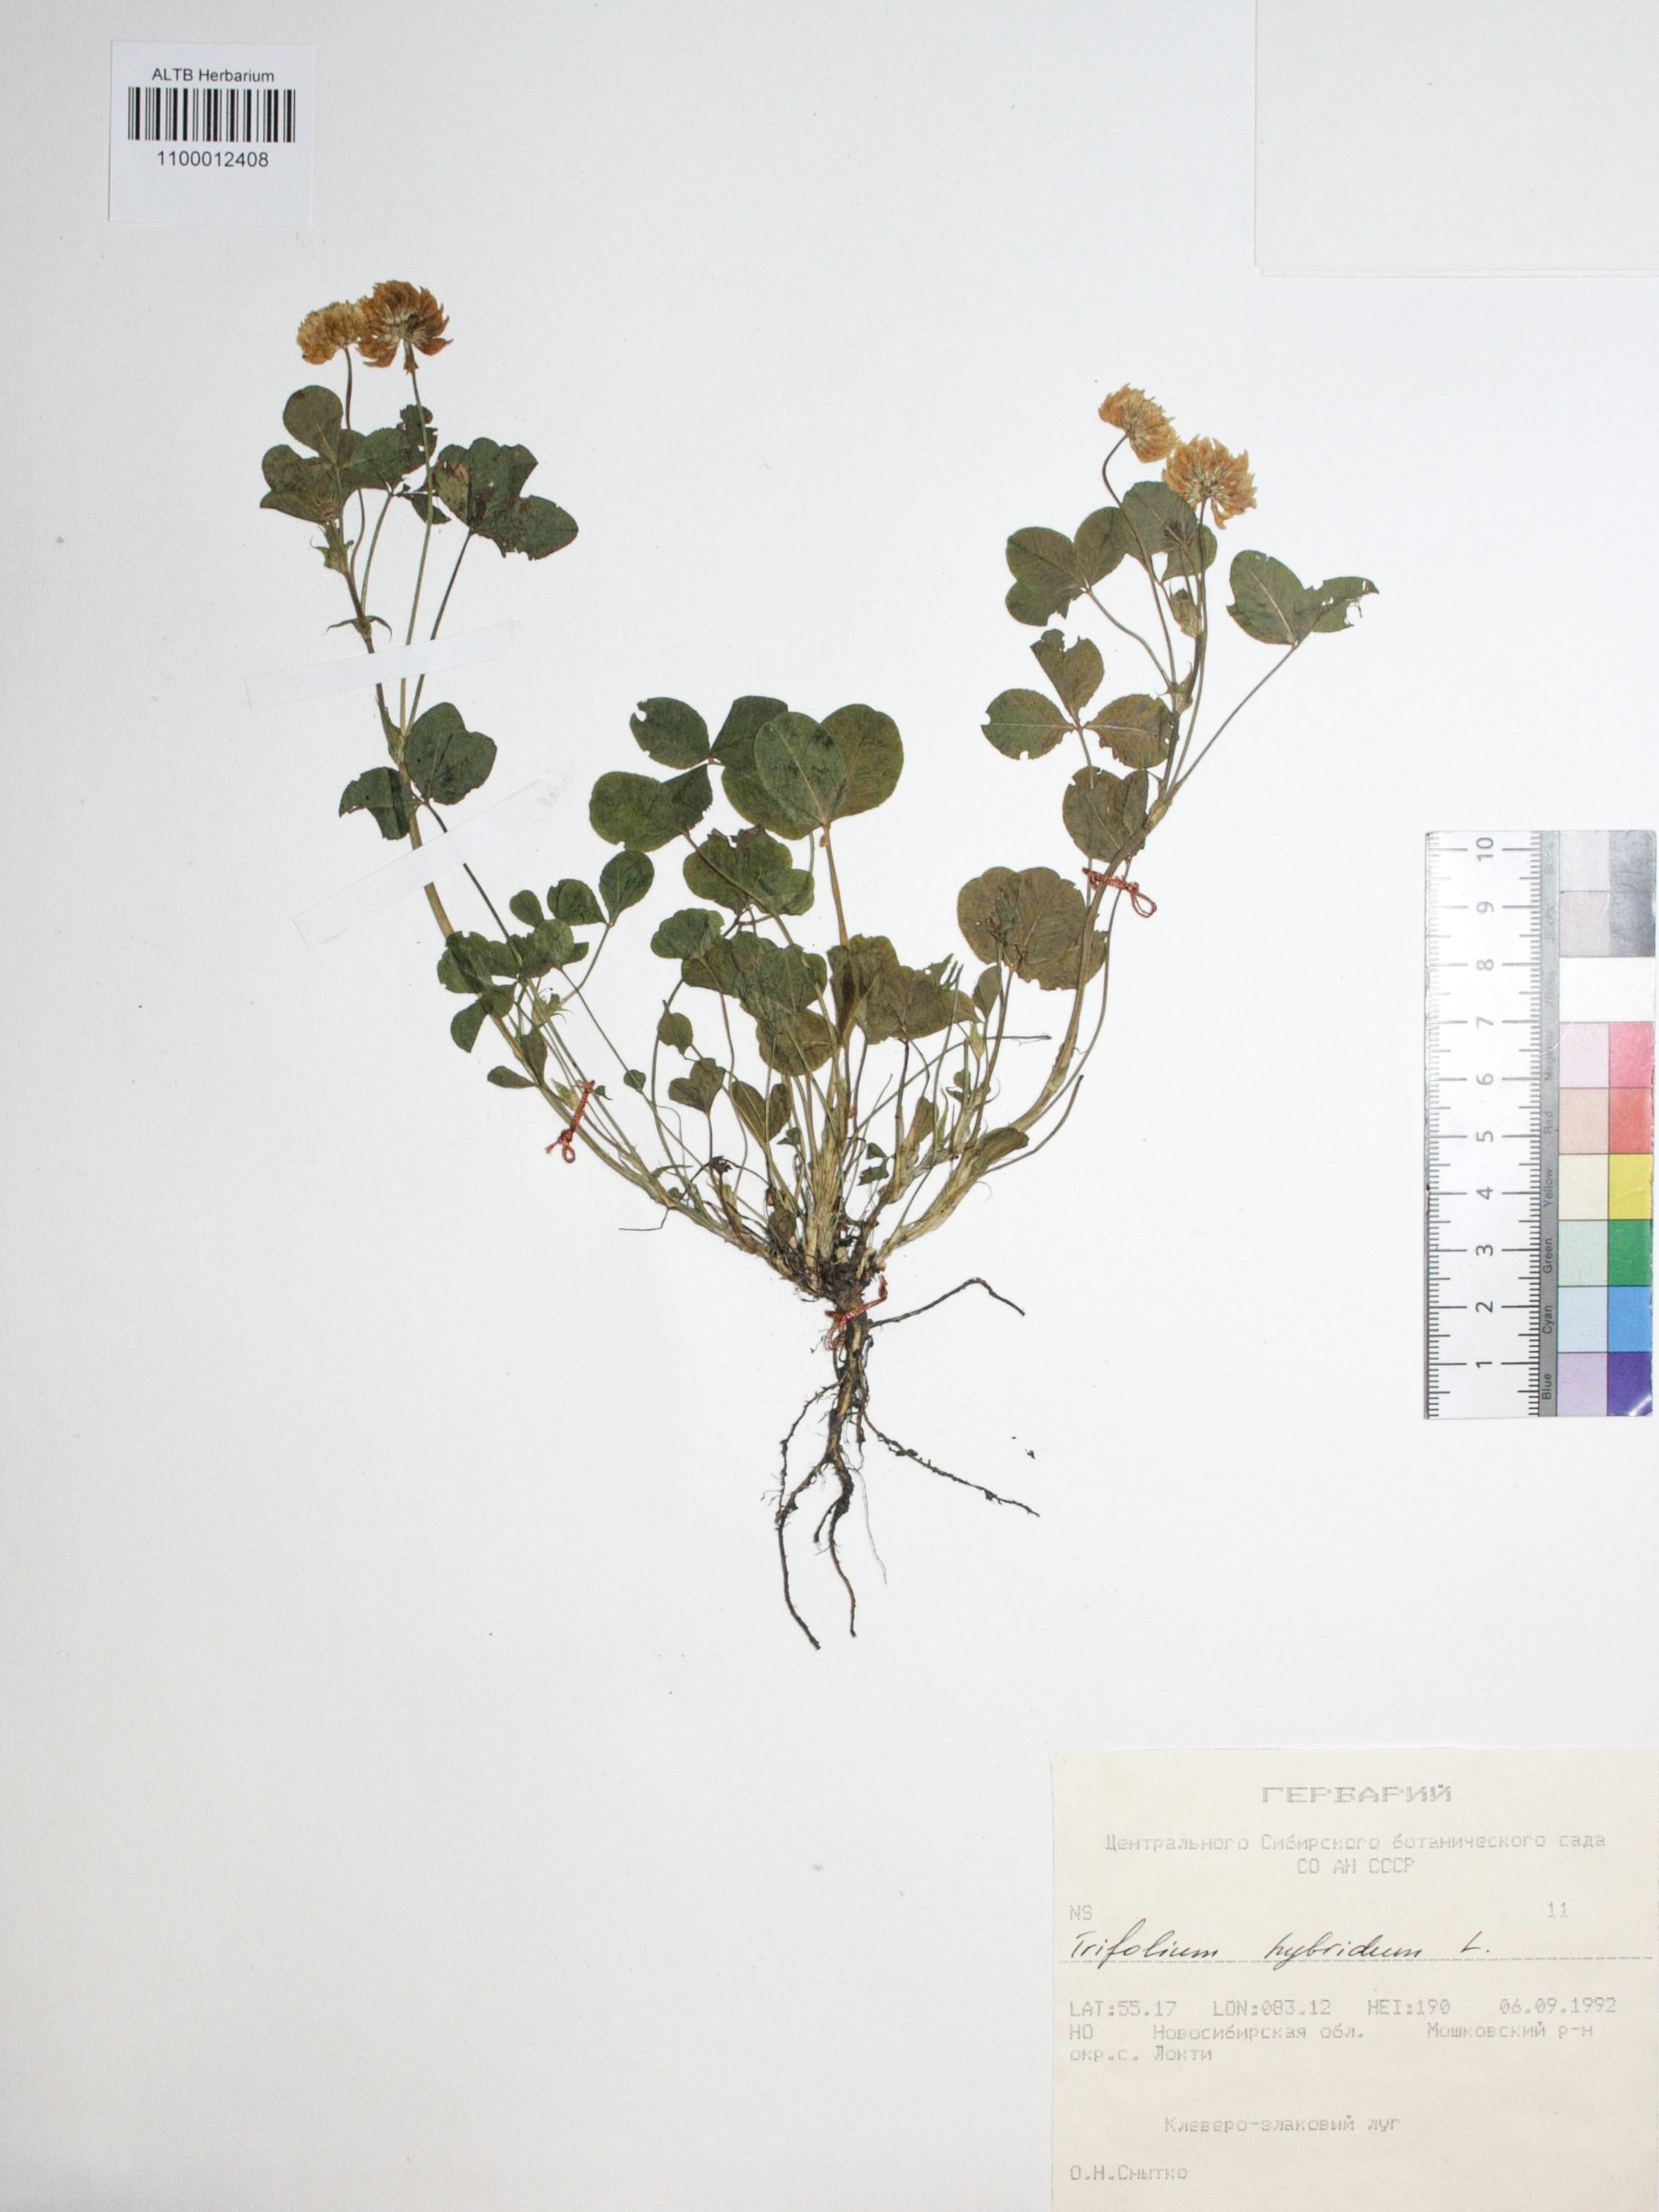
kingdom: Plantae
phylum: Tracheophyta
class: Magnoliopsida
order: Fabales
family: Fabaceae
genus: Trifolium
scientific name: Trifolium hybridum
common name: Alsike clover
